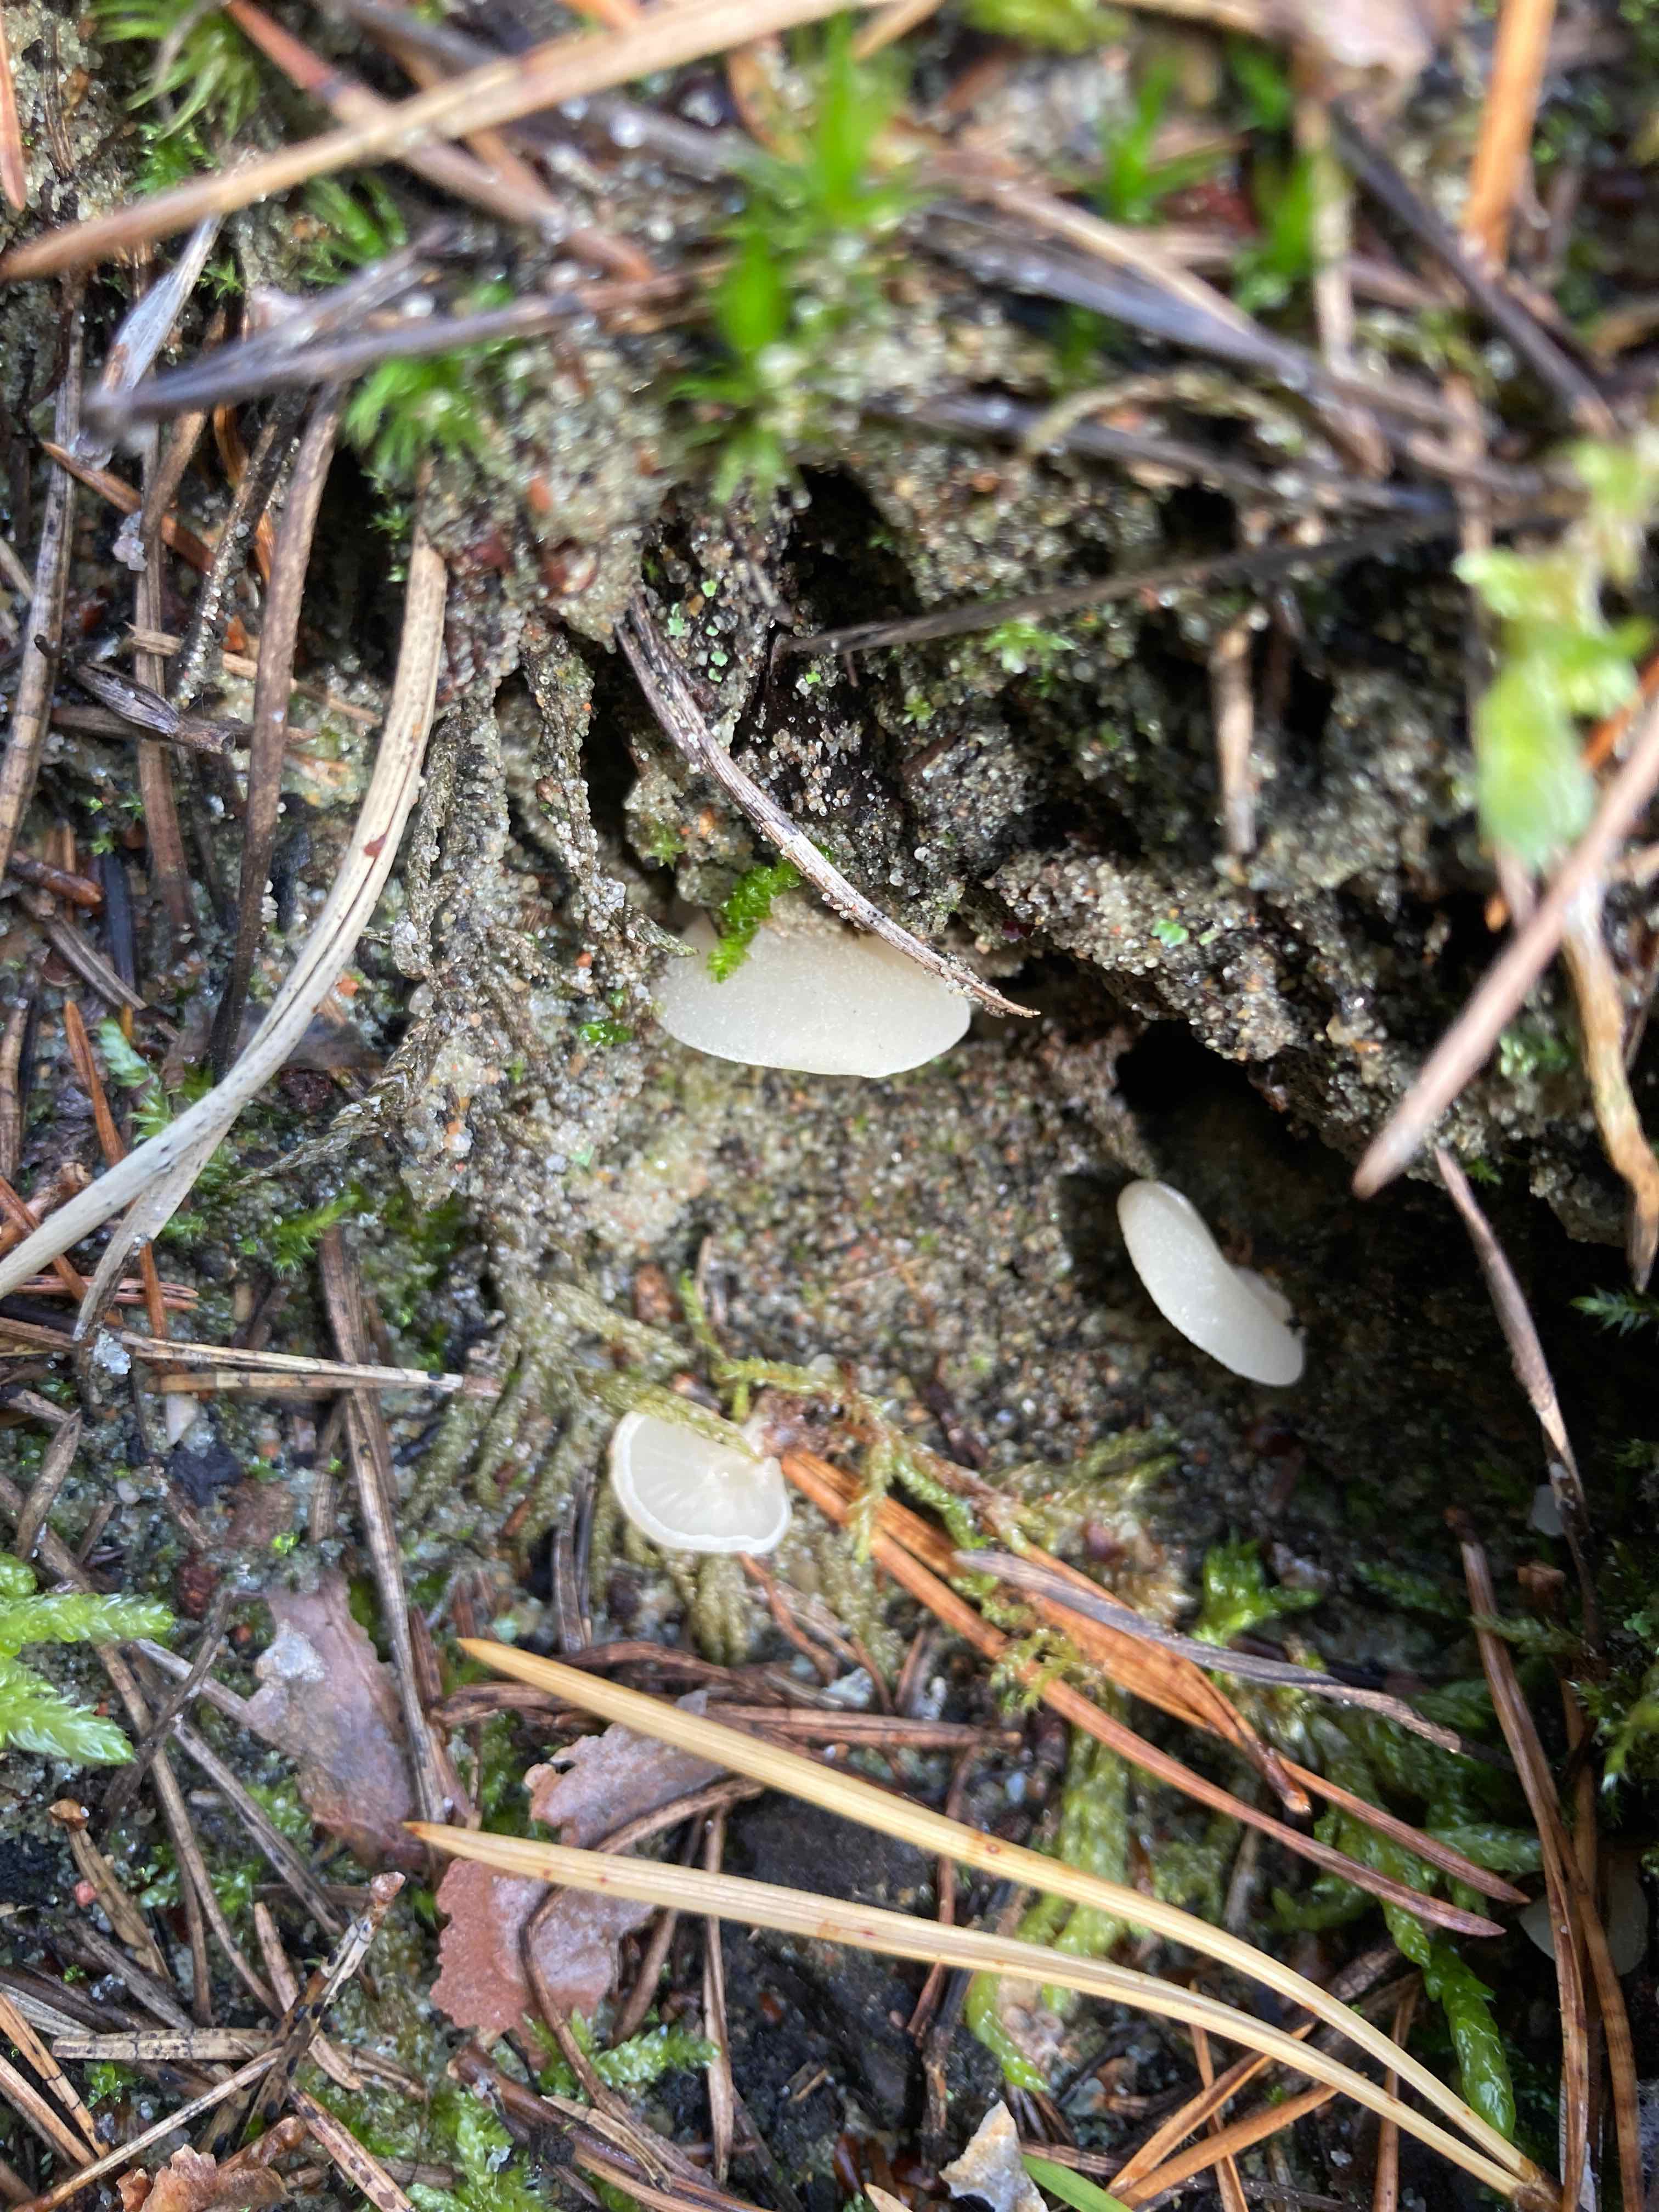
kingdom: Fungi
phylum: Basidiomycota
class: Agaricomycetes
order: Agaricales
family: Crepidotaceae
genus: Crepidotus
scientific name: Crepidotus applanatus
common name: tvefarvet muslingesvamp
